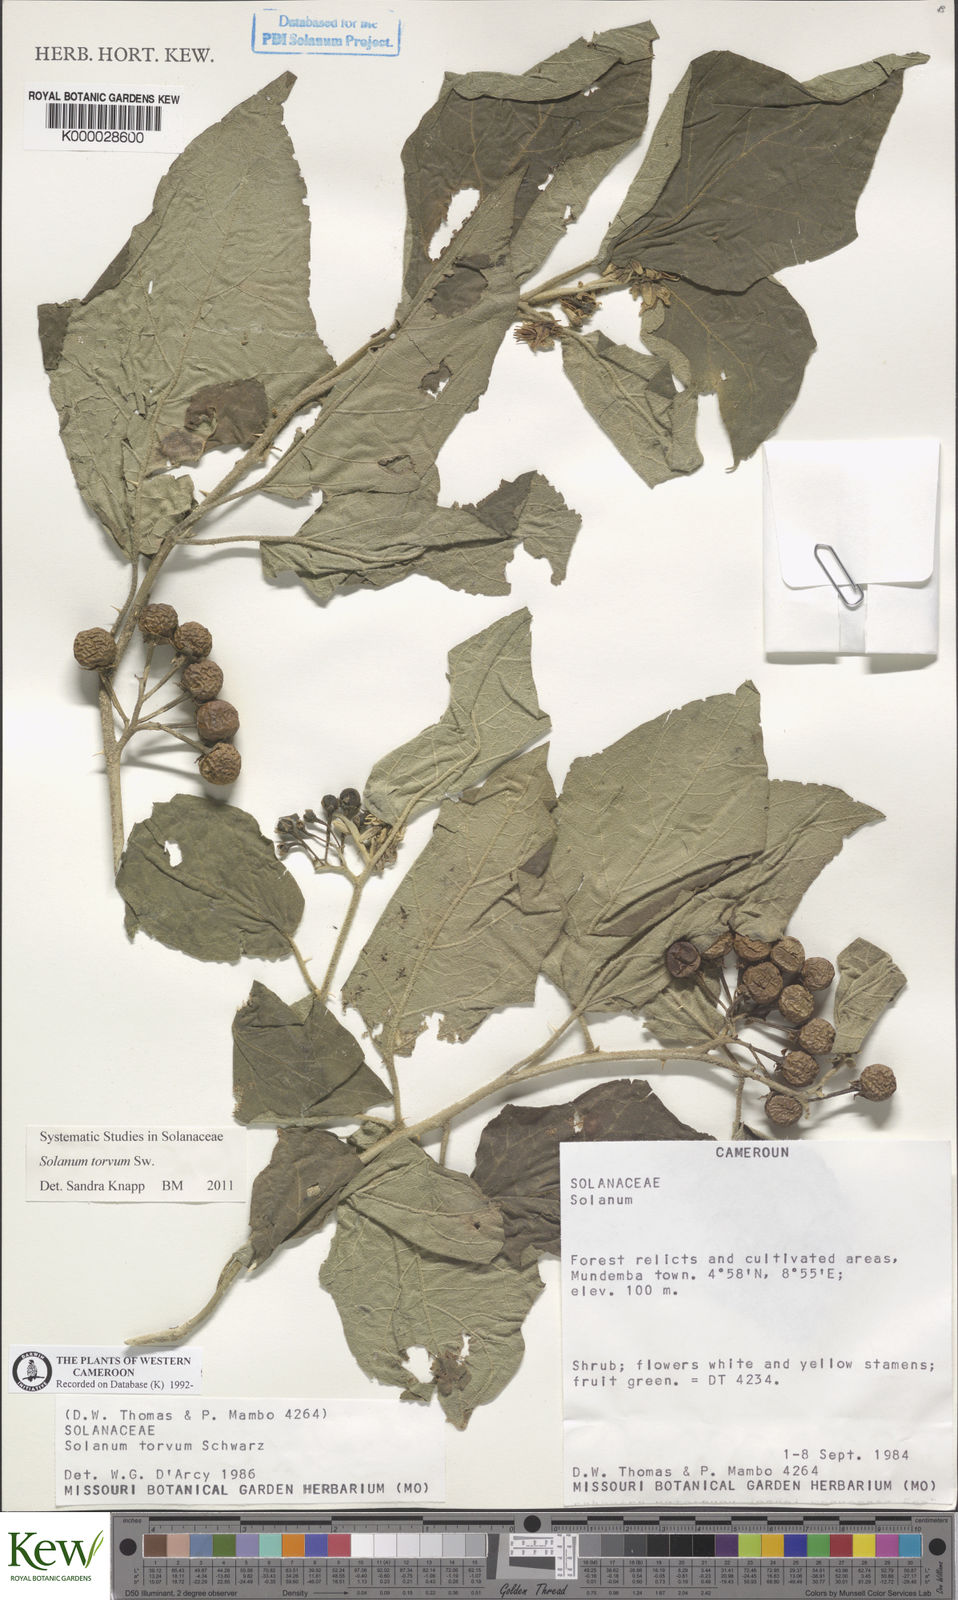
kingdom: Plantae
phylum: Tracheophyta
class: Magnoliopsida
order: Solanales
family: Solanaceae
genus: Solanum
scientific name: Solanum torvum
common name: Turkey berry
